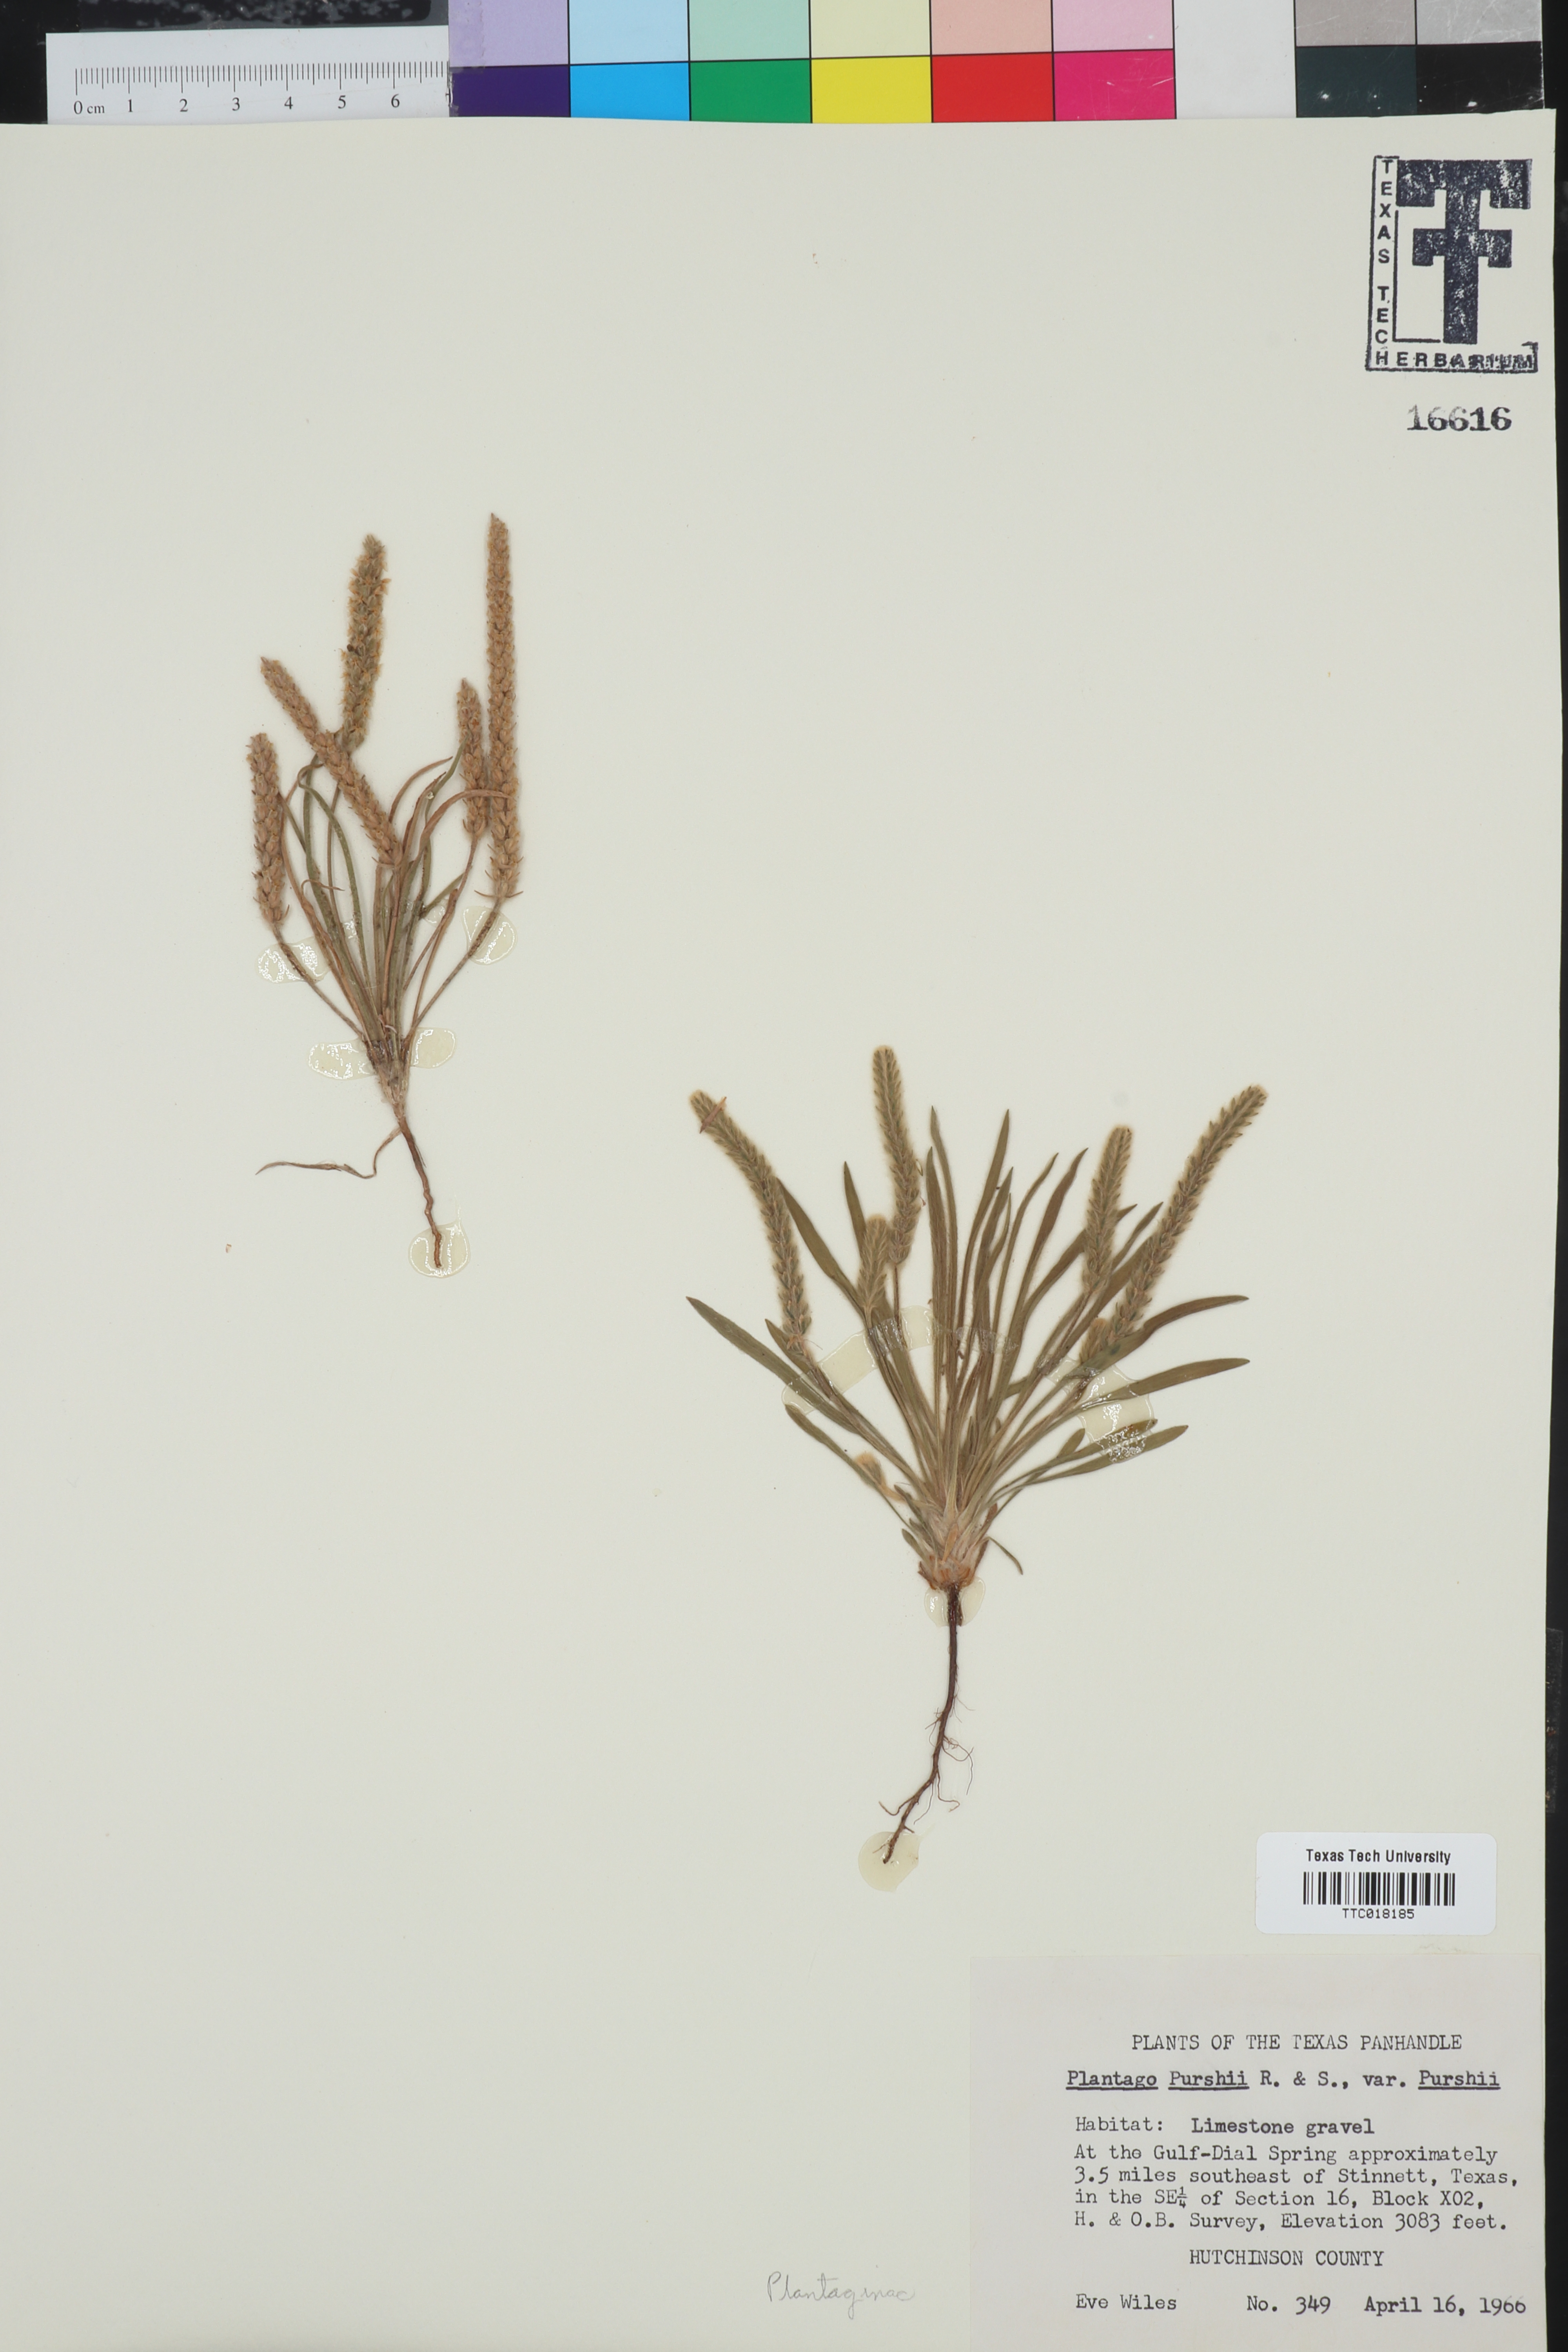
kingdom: Plantae
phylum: Tracheophyta
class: Magnoliopsida
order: Lamiales
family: Plantaginaceae
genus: Plantago
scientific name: Plantago patagonica
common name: Patagonia indian-wheat
